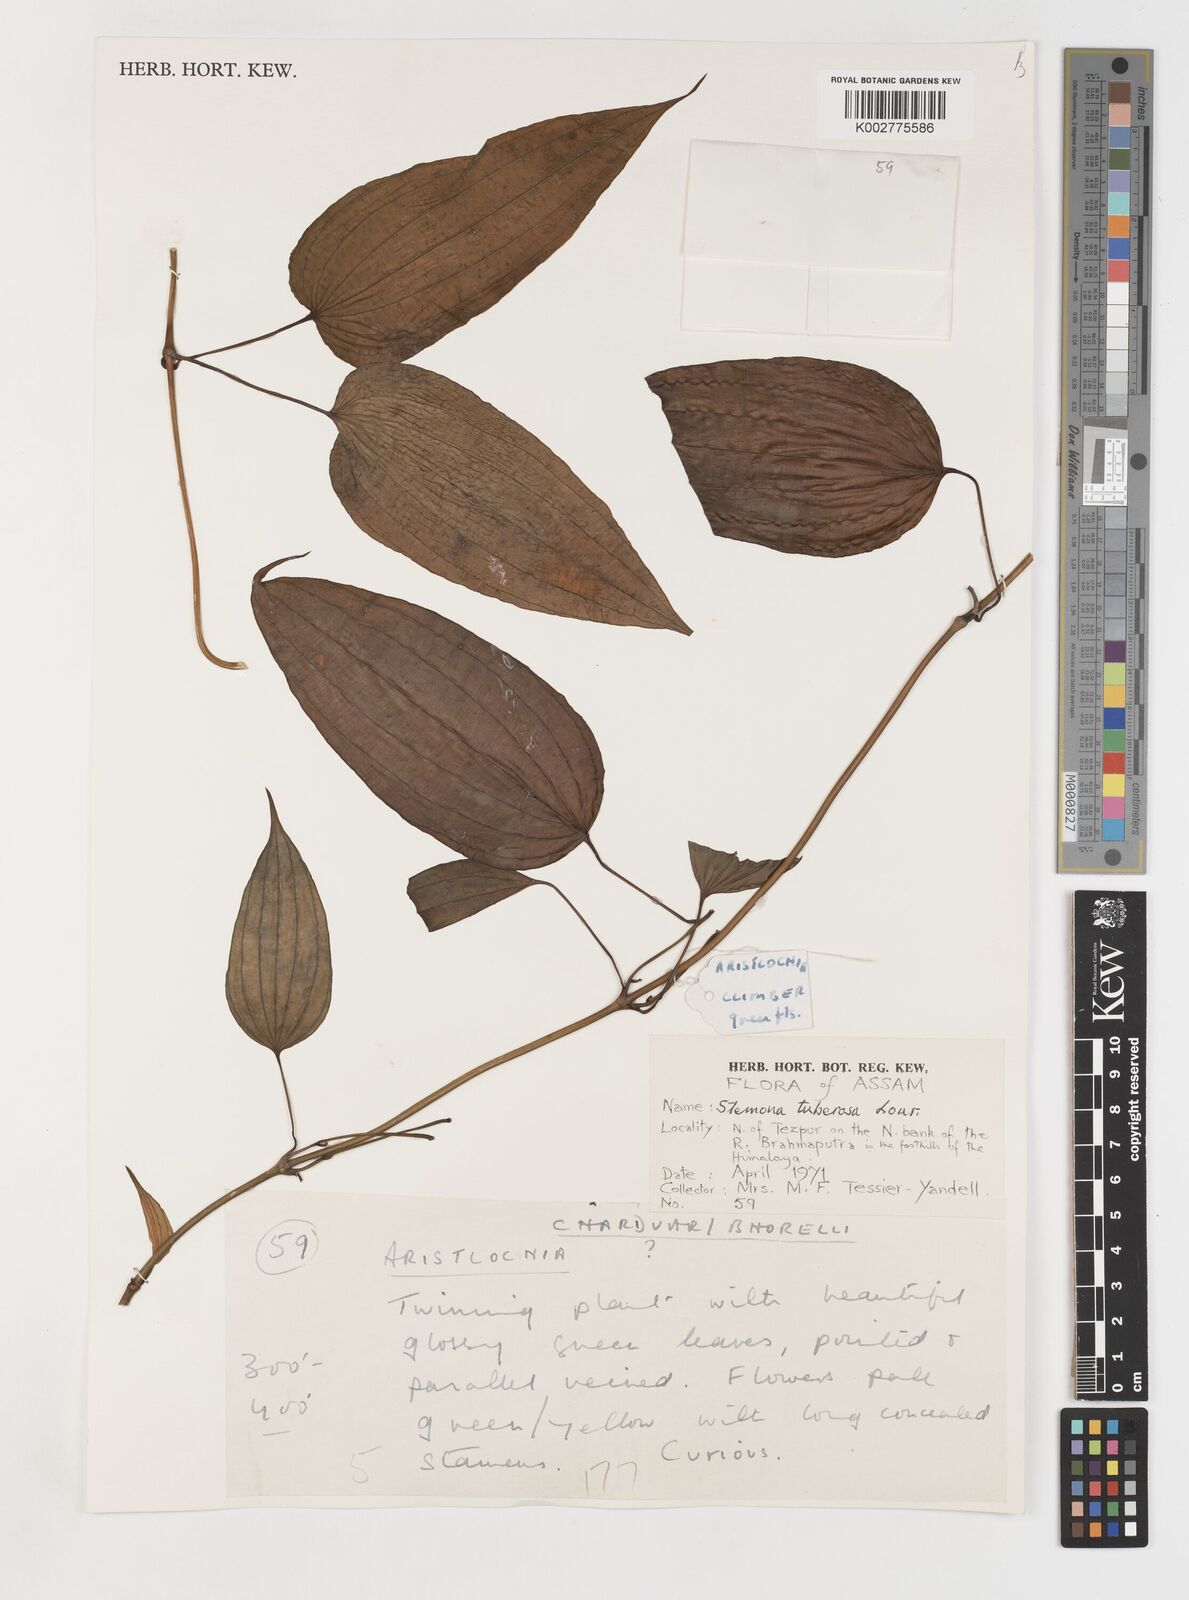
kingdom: Plantae
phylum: Tracheophyta
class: Liliopsida
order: Pandanales
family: Stemonaceae
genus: Stemona
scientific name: Stemona tuberosa
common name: Stemona
